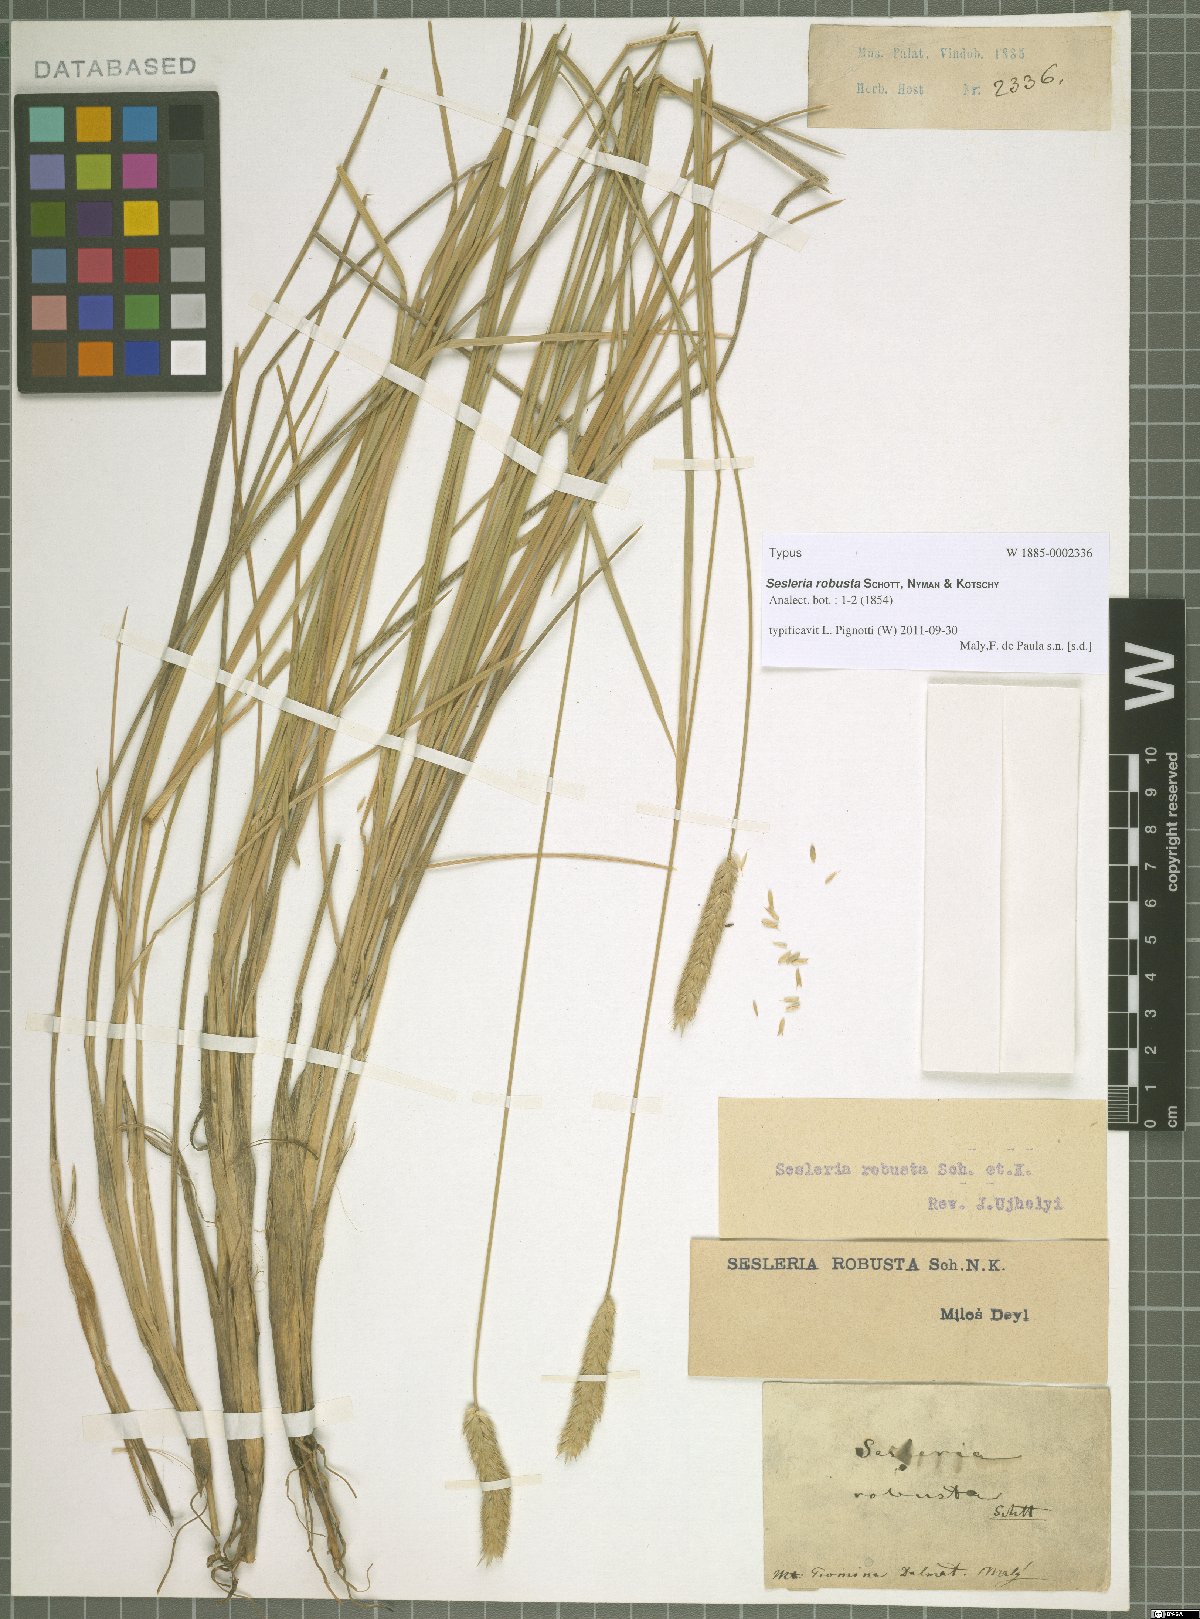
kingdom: Plantae
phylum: Tracheophyta
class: Liliopsida
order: Poales
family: Poaceae
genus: Sesleria
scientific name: Sesleria robusta
